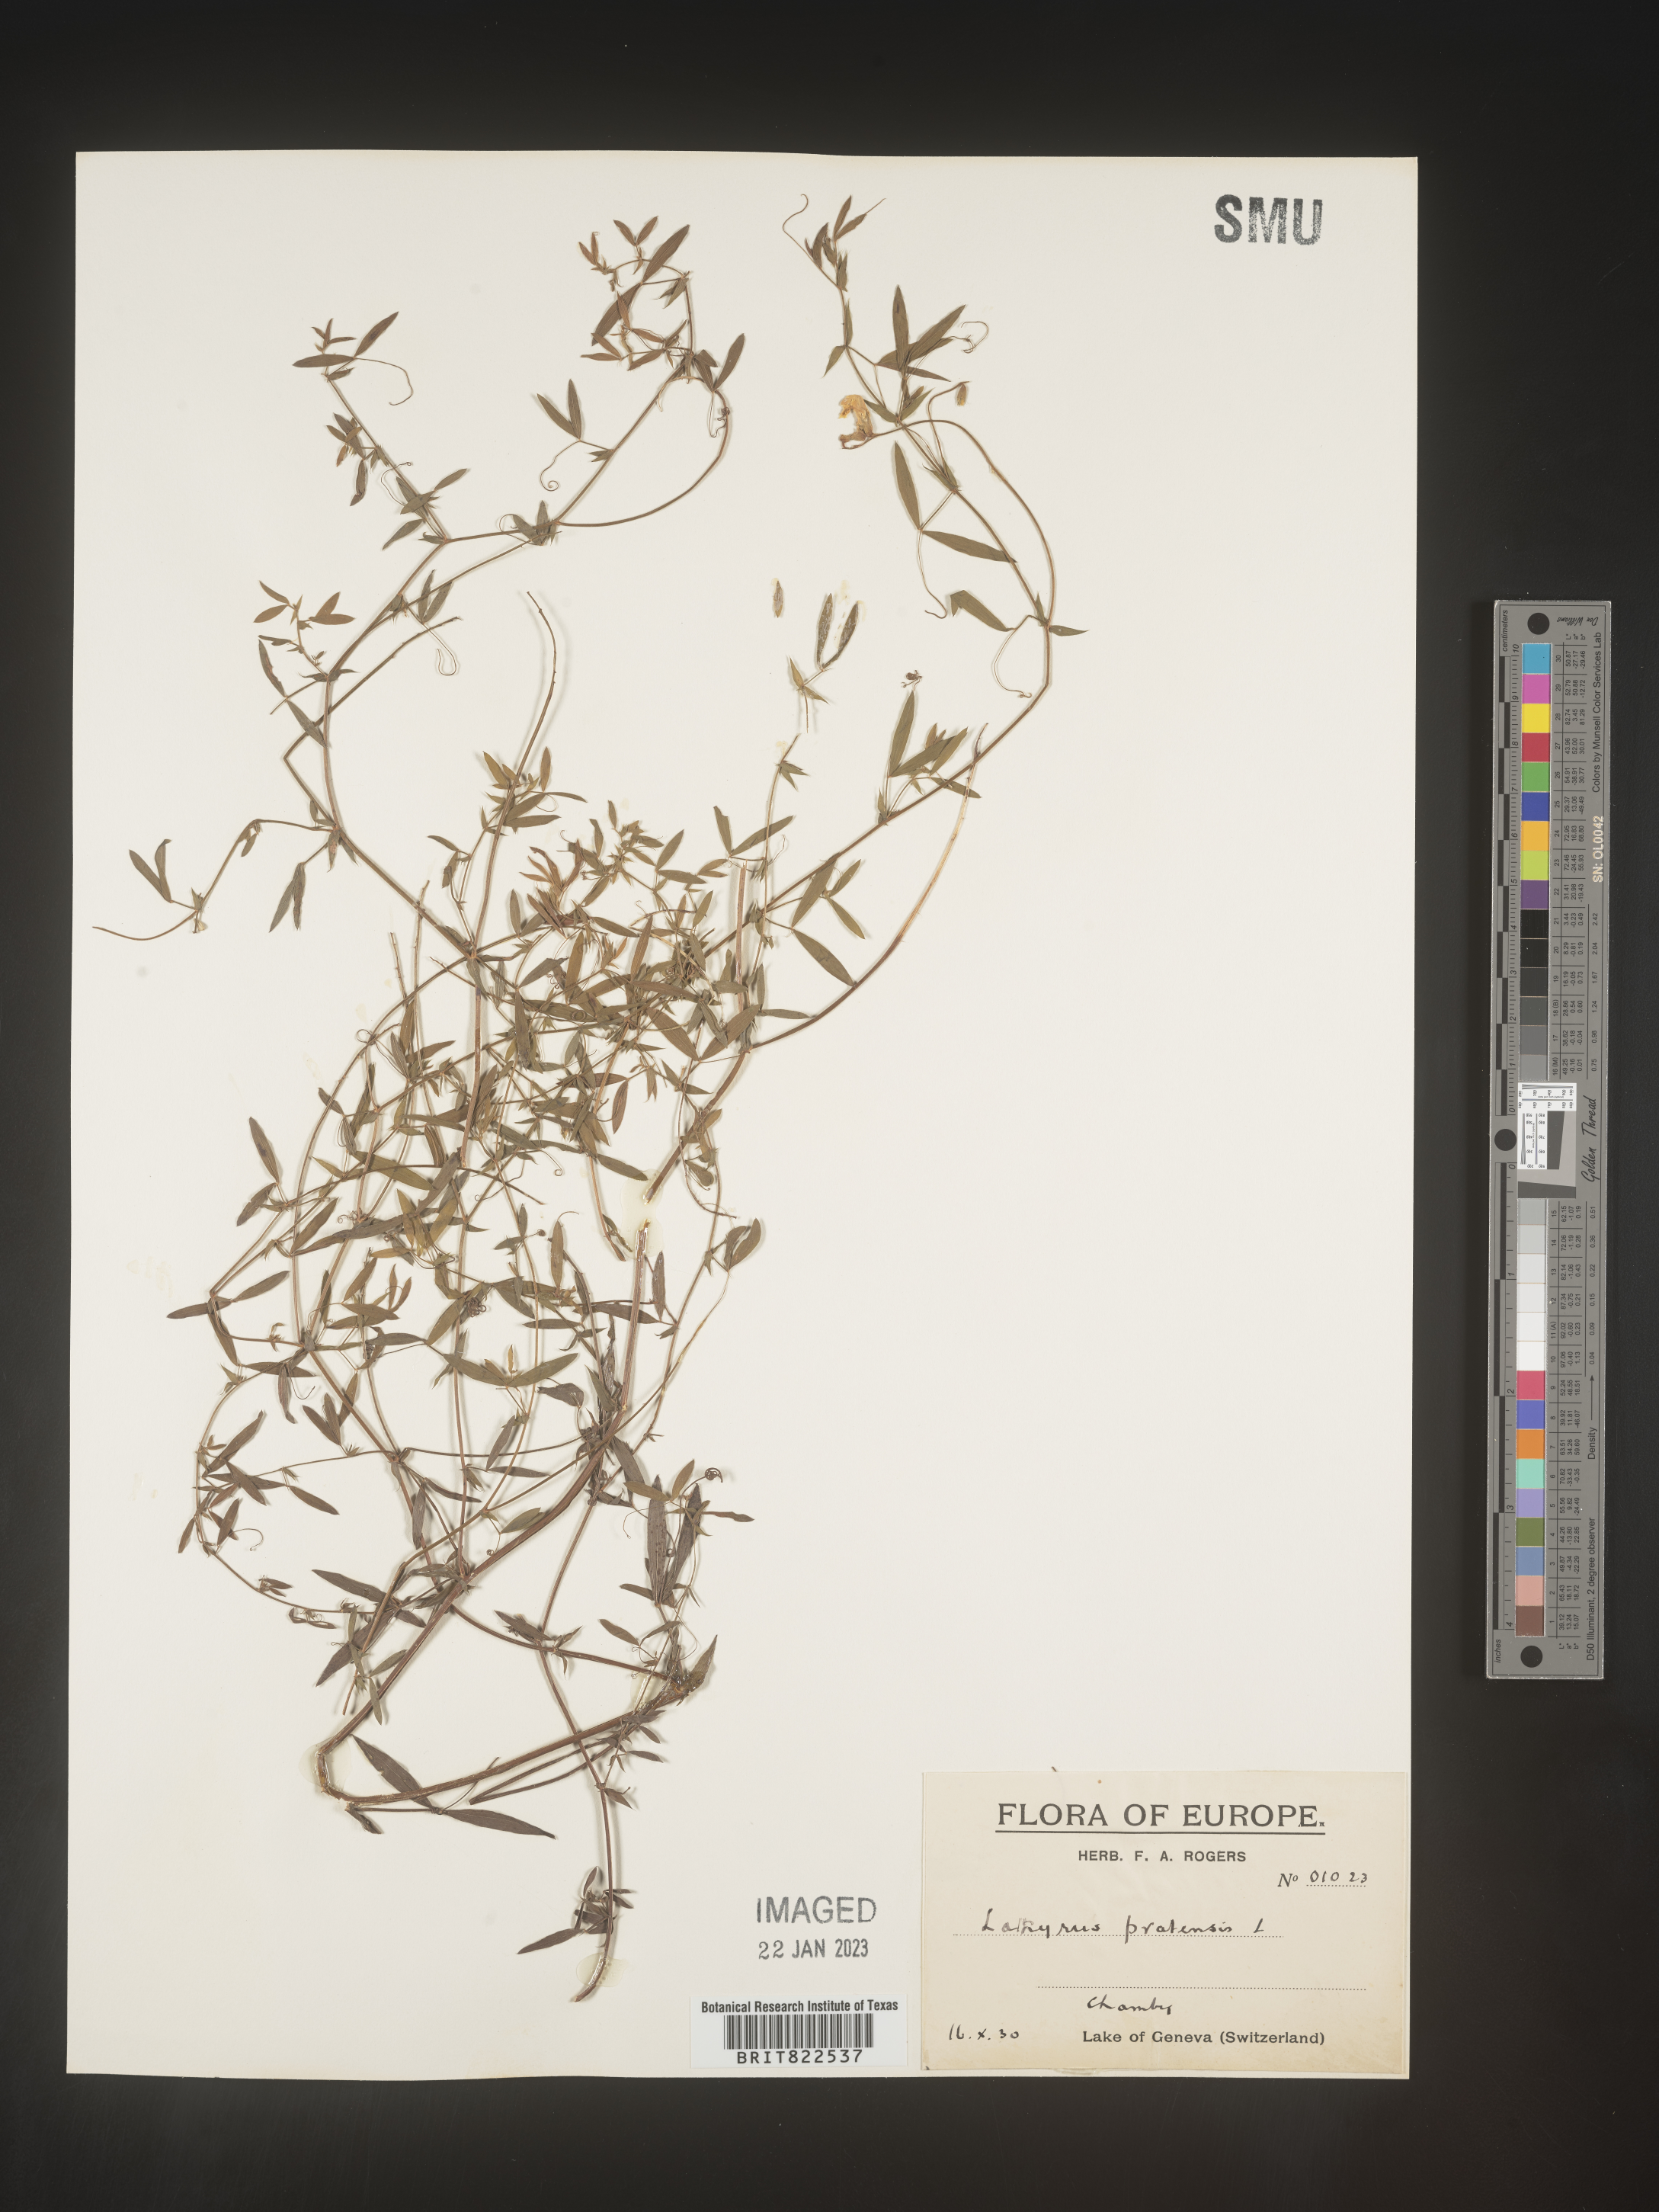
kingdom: Plantae
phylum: Tracheophyta
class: Magnoliopsida
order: Fabales
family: Fabaceae
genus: Lathyrus
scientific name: Lathyrus
